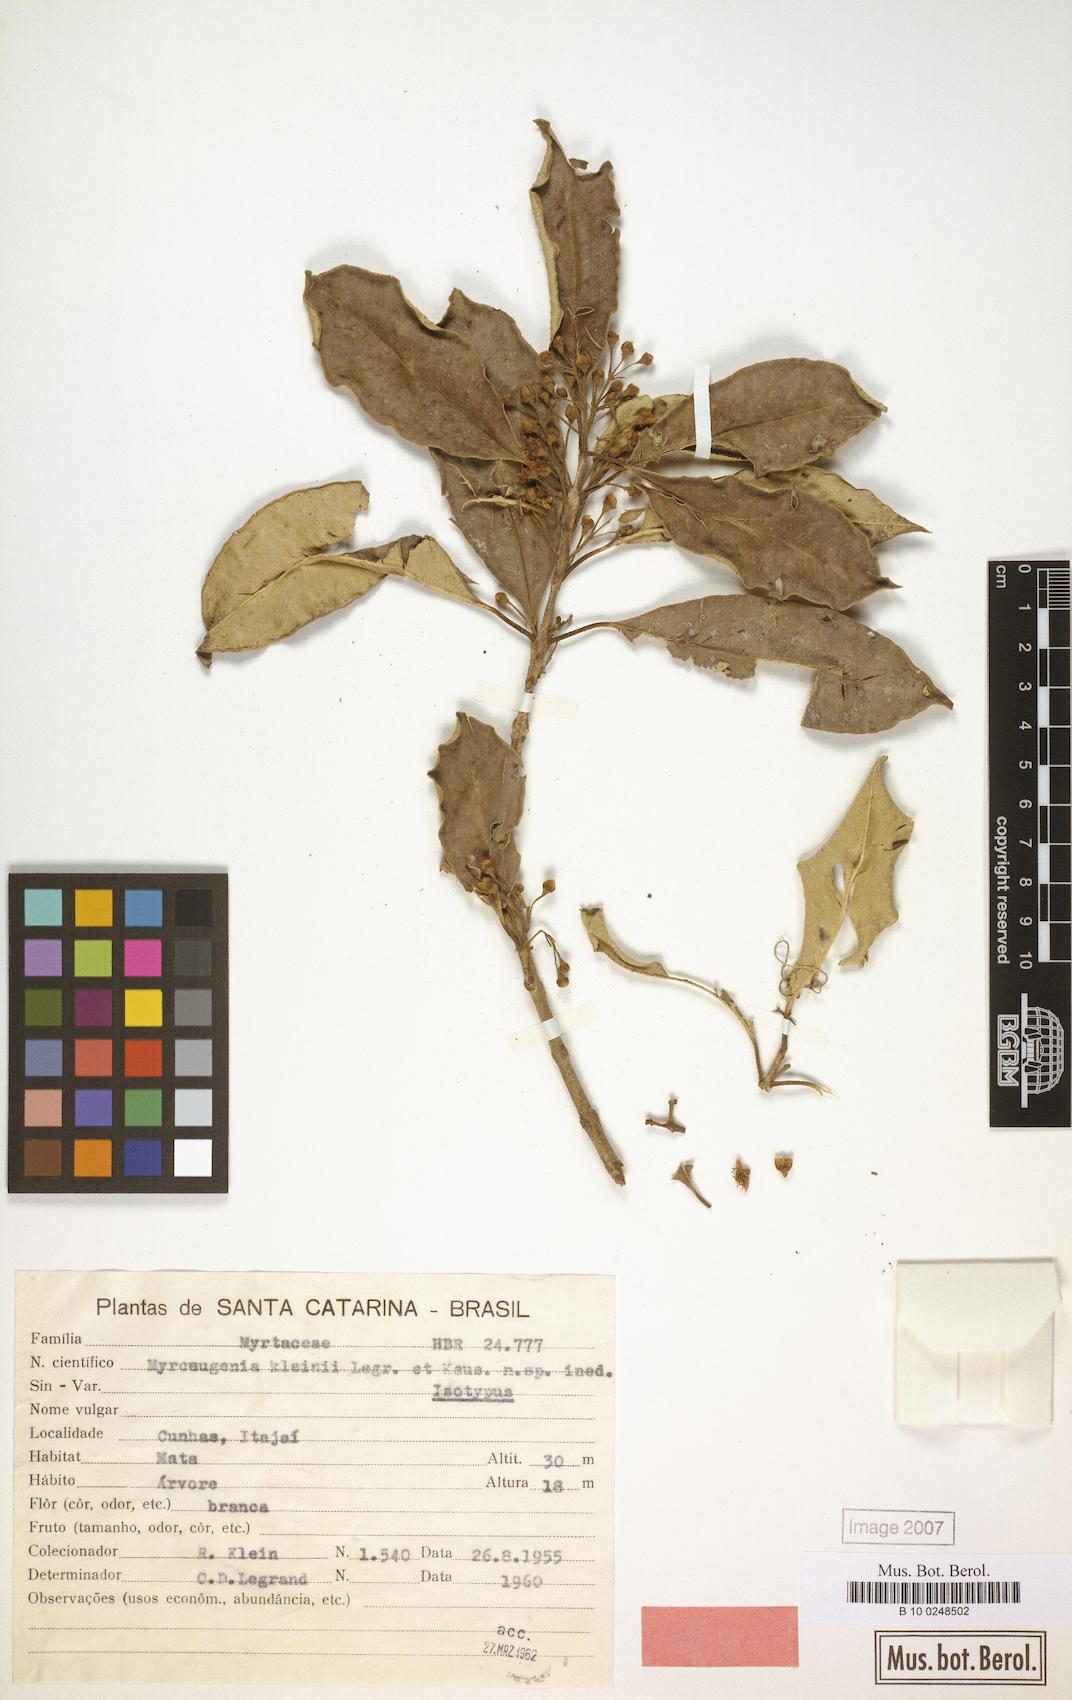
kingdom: Plantae
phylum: Tracheophyta
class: Magnoliopsida
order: Myrtales
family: Myrtaceae
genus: Myrceugenia
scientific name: Myrceugenia kleinii
